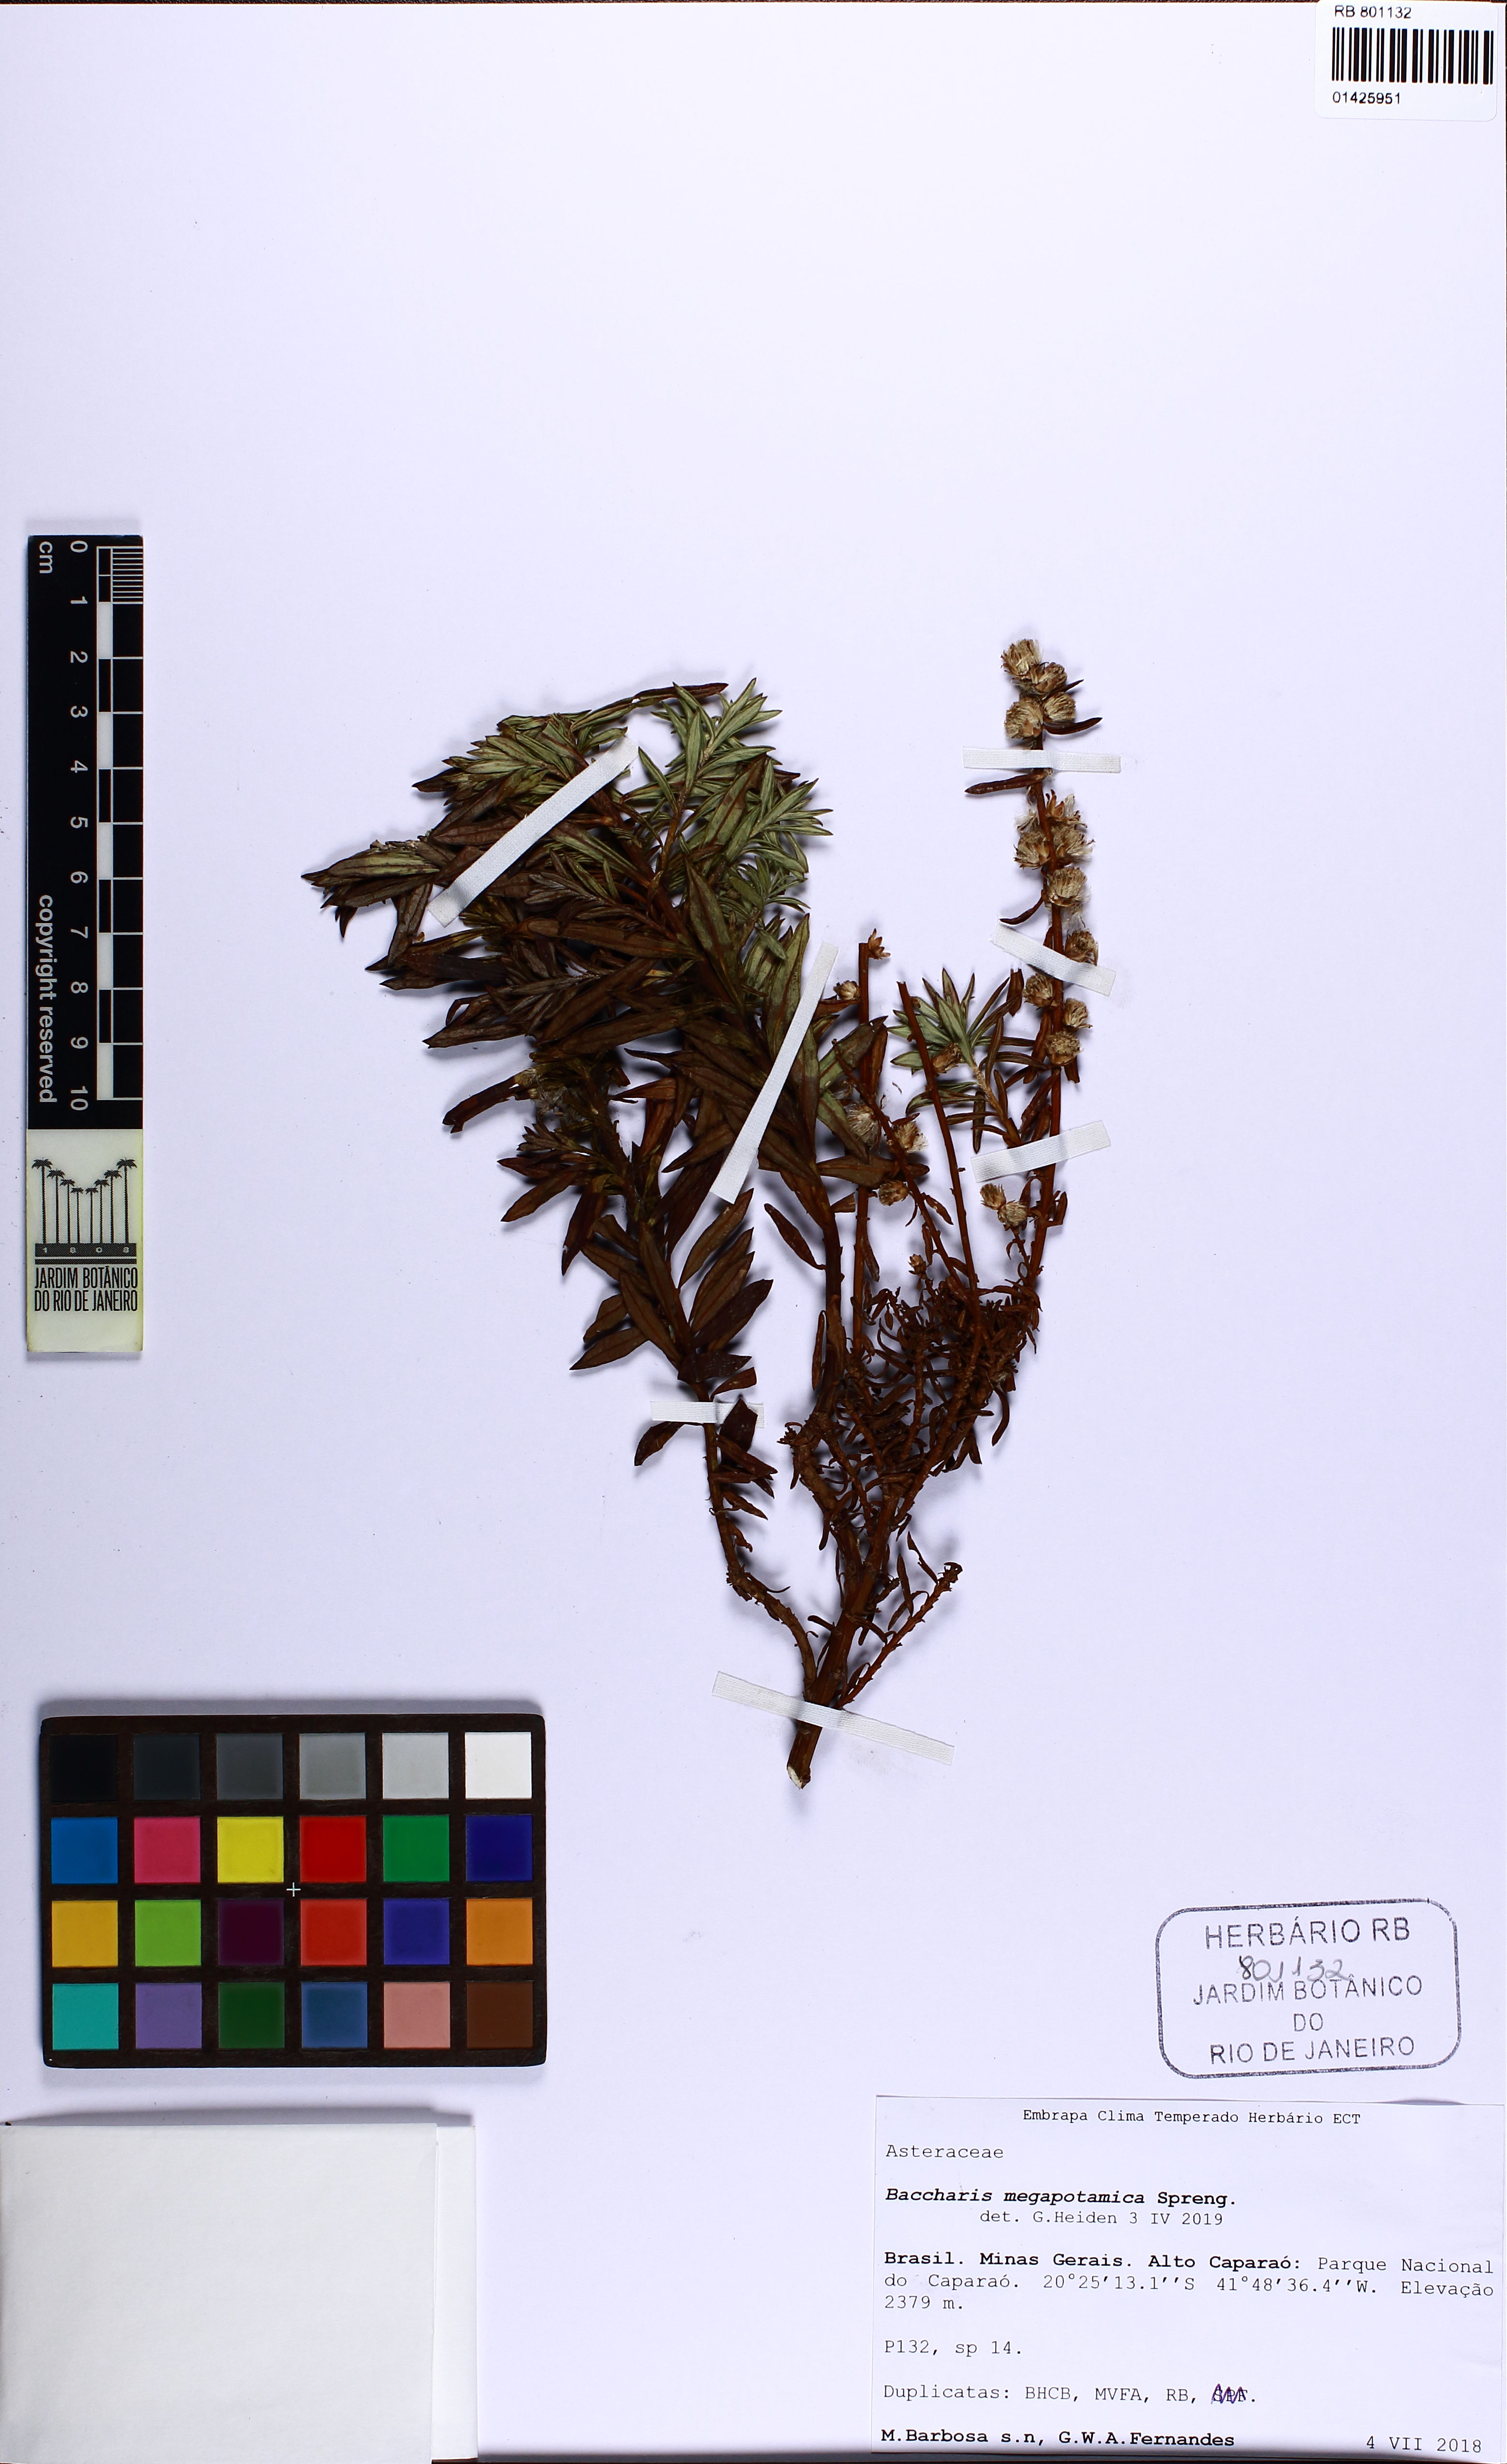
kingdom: Plantae
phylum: Tracheophyta
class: Magnoliopsida
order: Asterales
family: Asteraceae
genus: Baccharis
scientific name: Baccharis megapotamica
